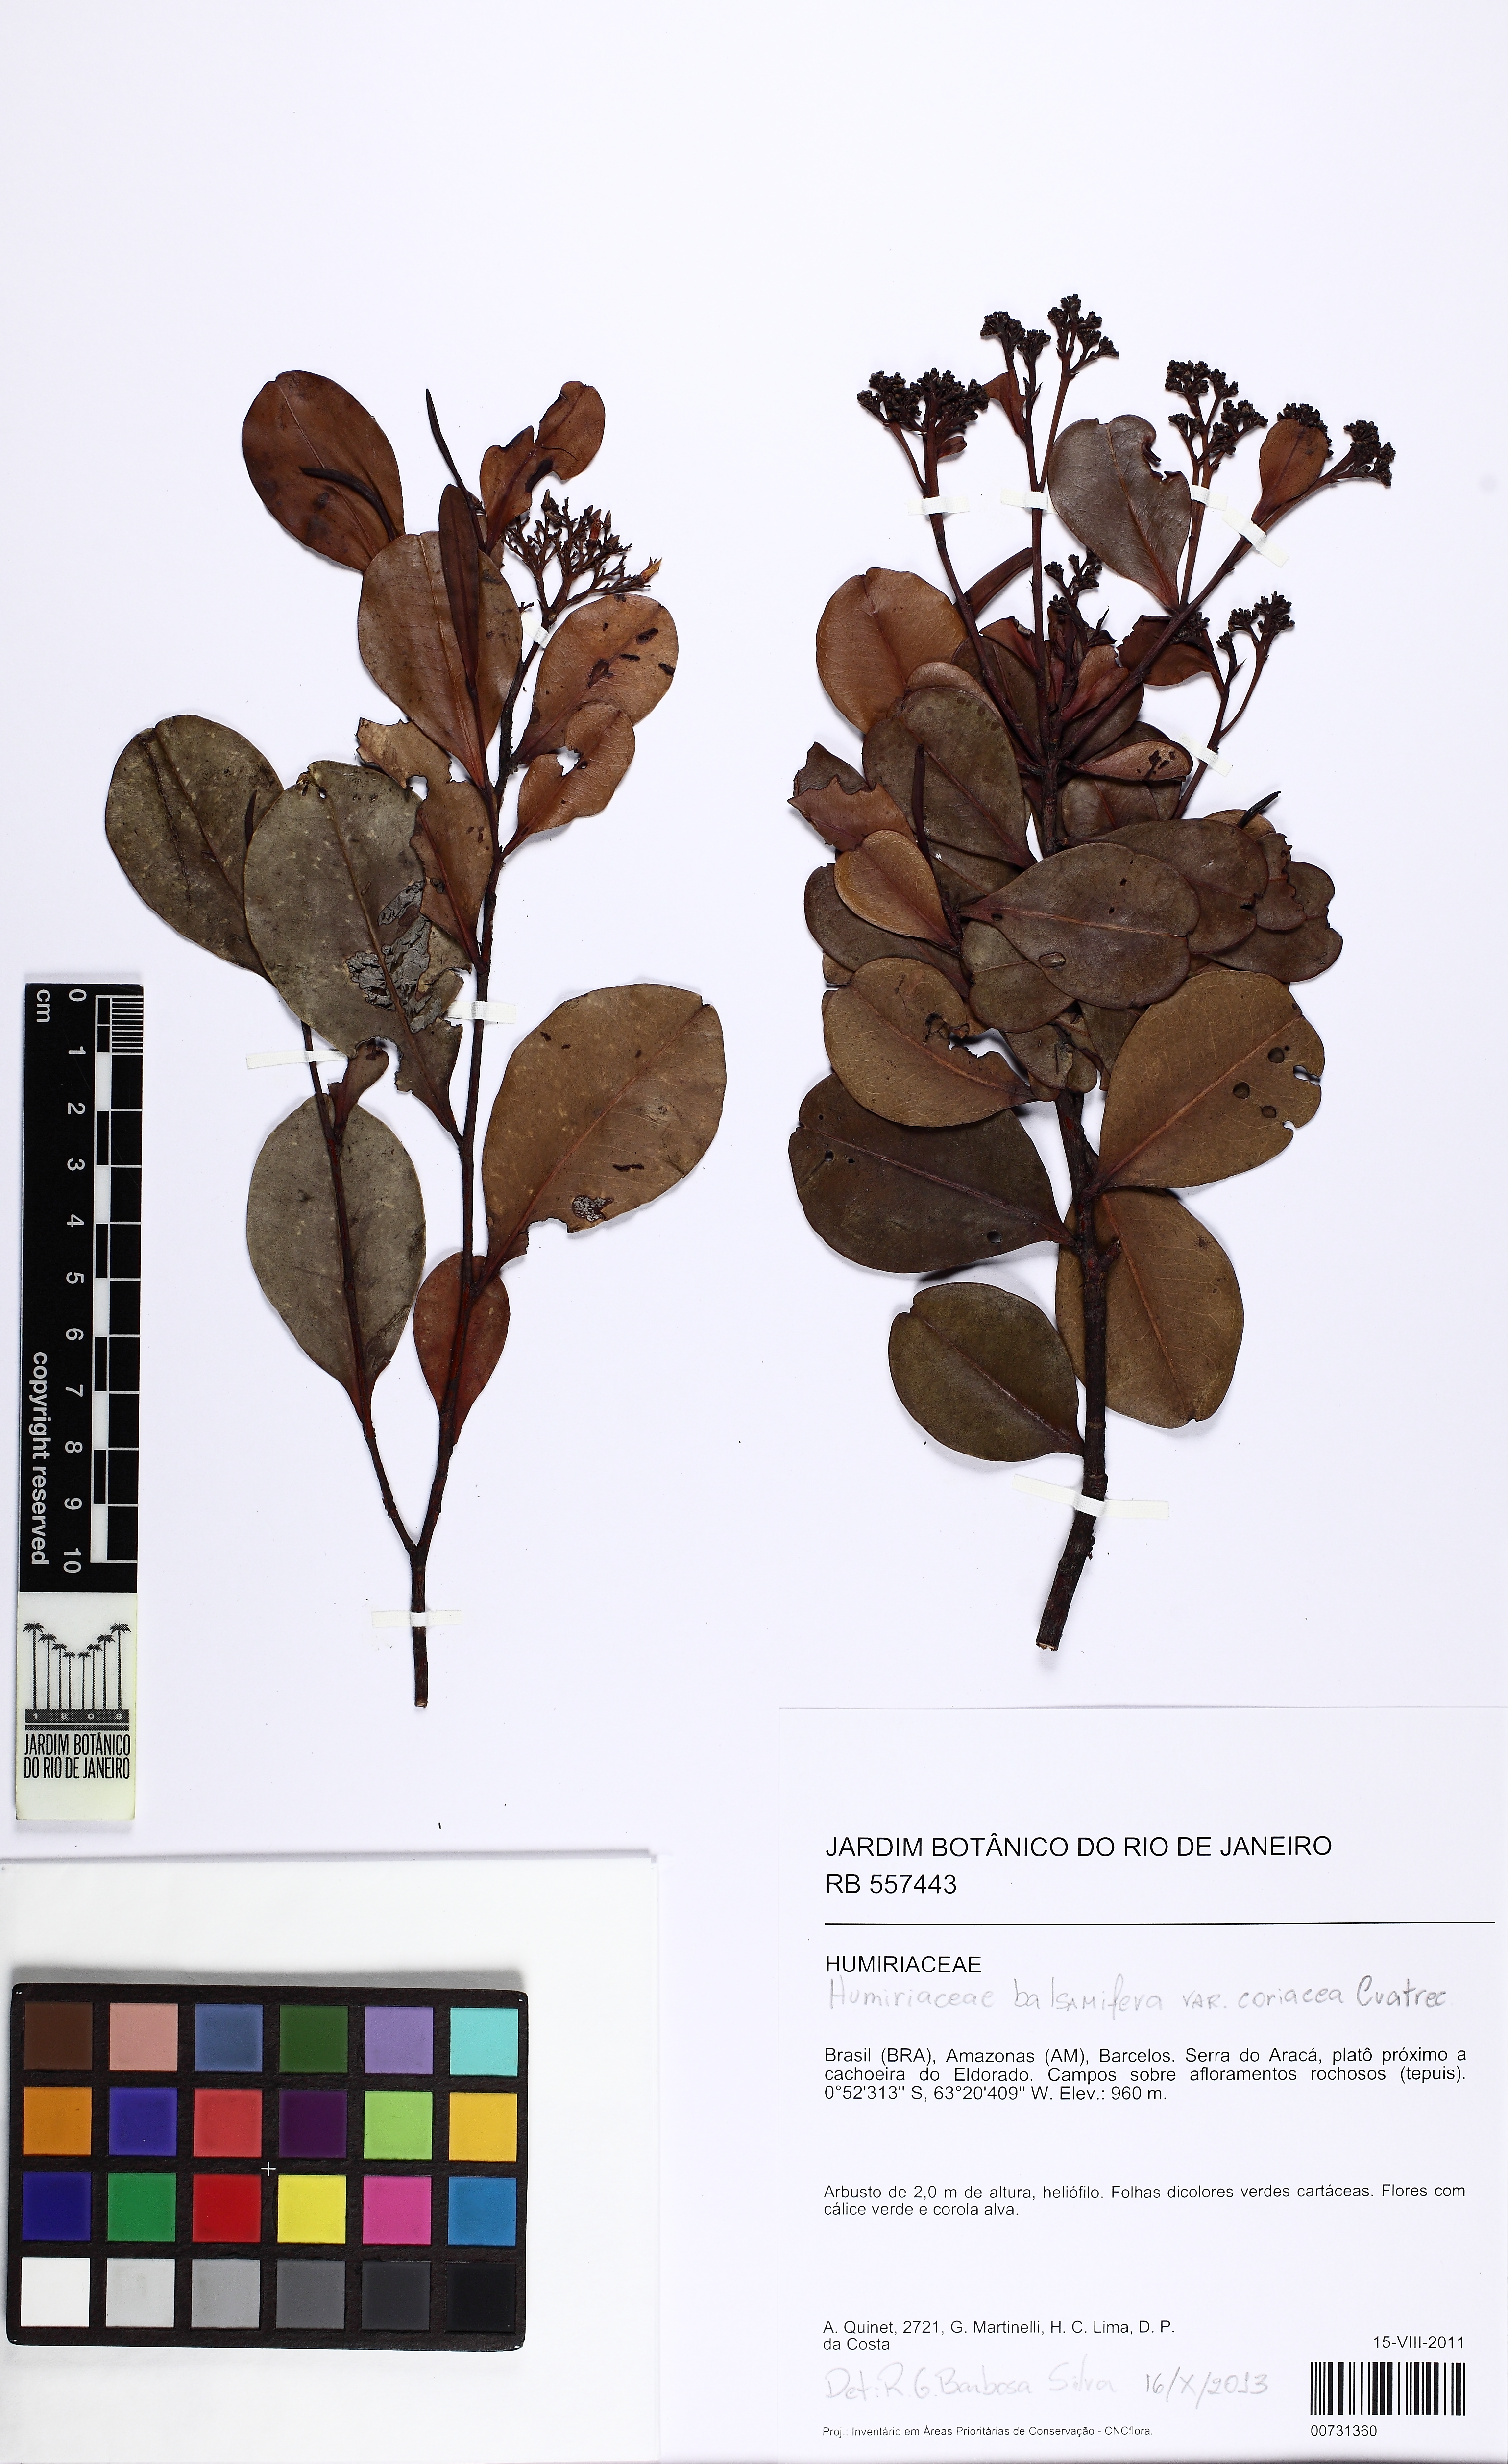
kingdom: Plantae
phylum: Tracheophyta
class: Magnoliopsida
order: Malpighiales
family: Humiriaceae
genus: Humiria
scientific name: Humiria balsamifera
